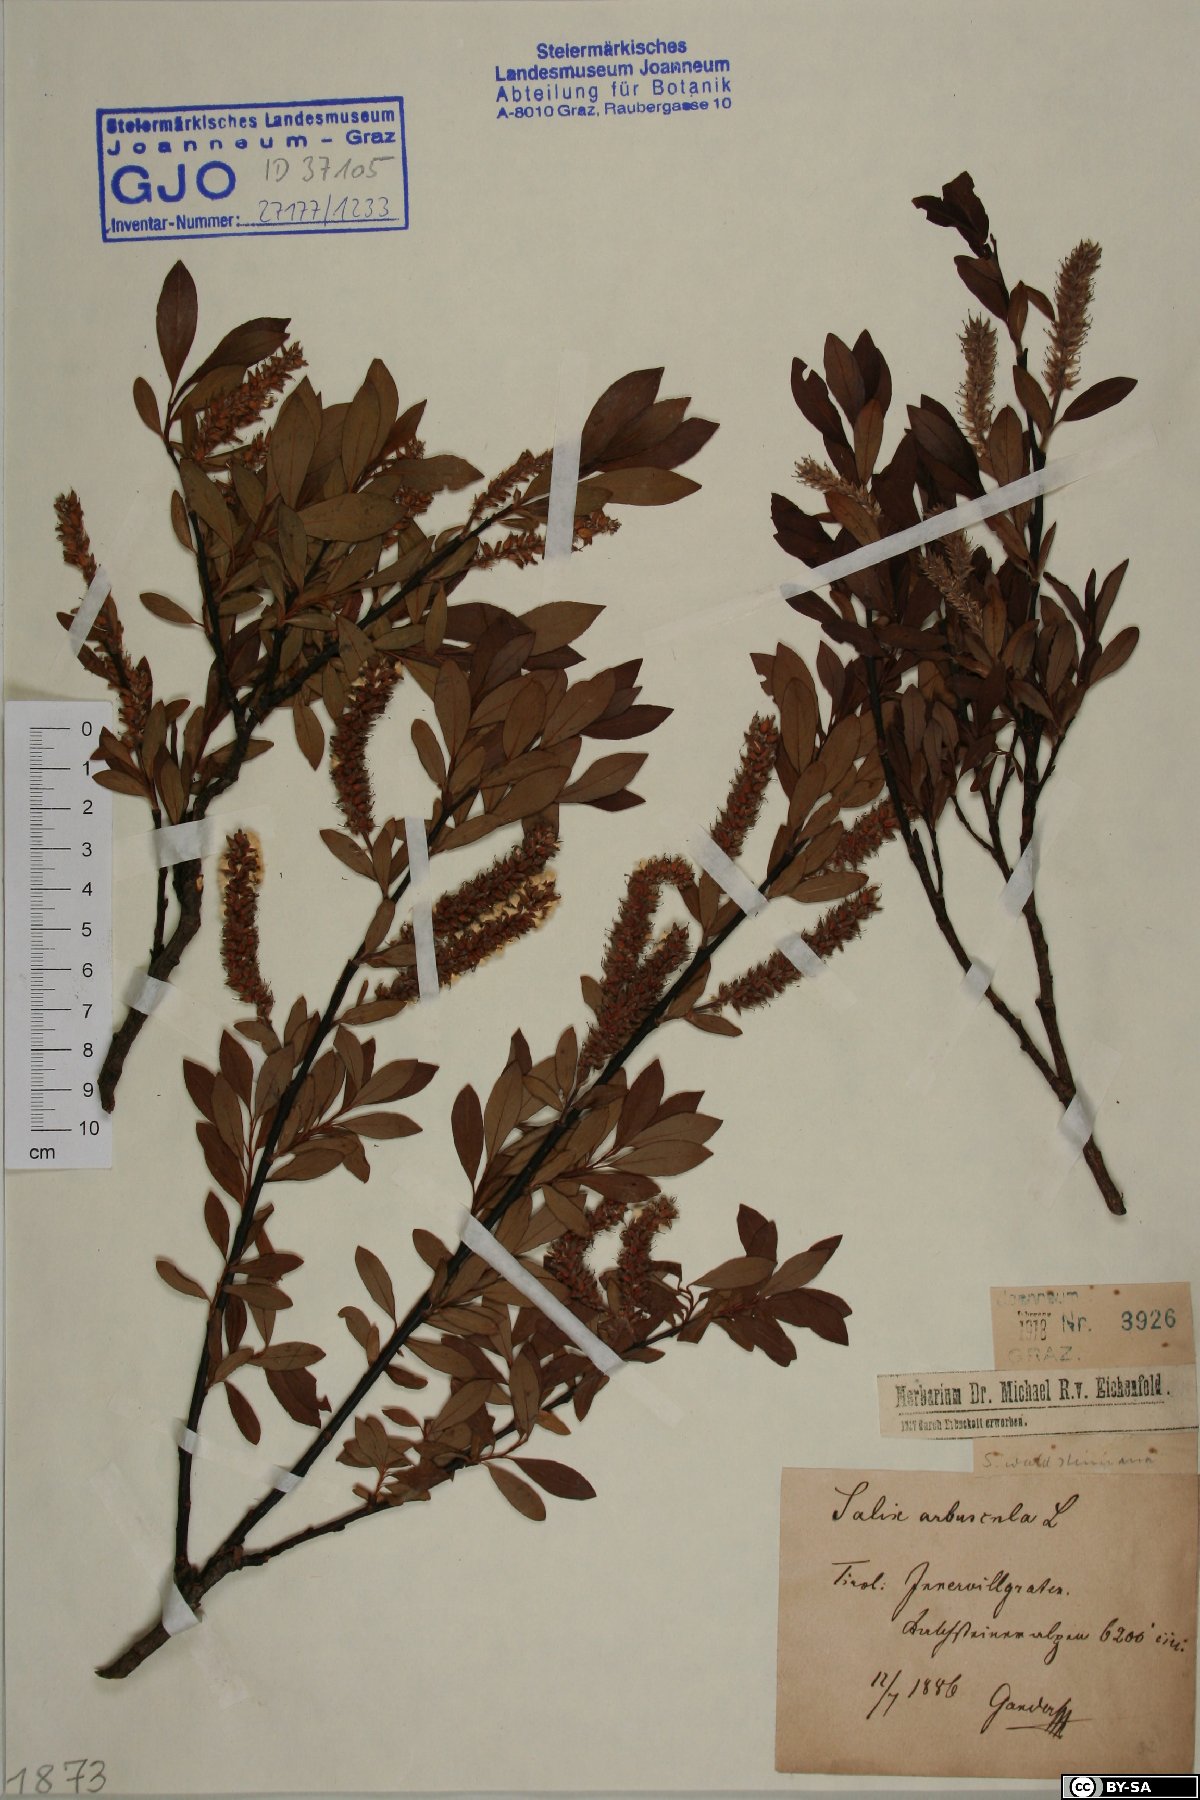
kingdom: Plantae
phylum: Tracheophyta
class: Magnoliopsida
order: Malpighiales
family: Salicaceae
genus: Salix
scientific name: Salix waldsteiniana
